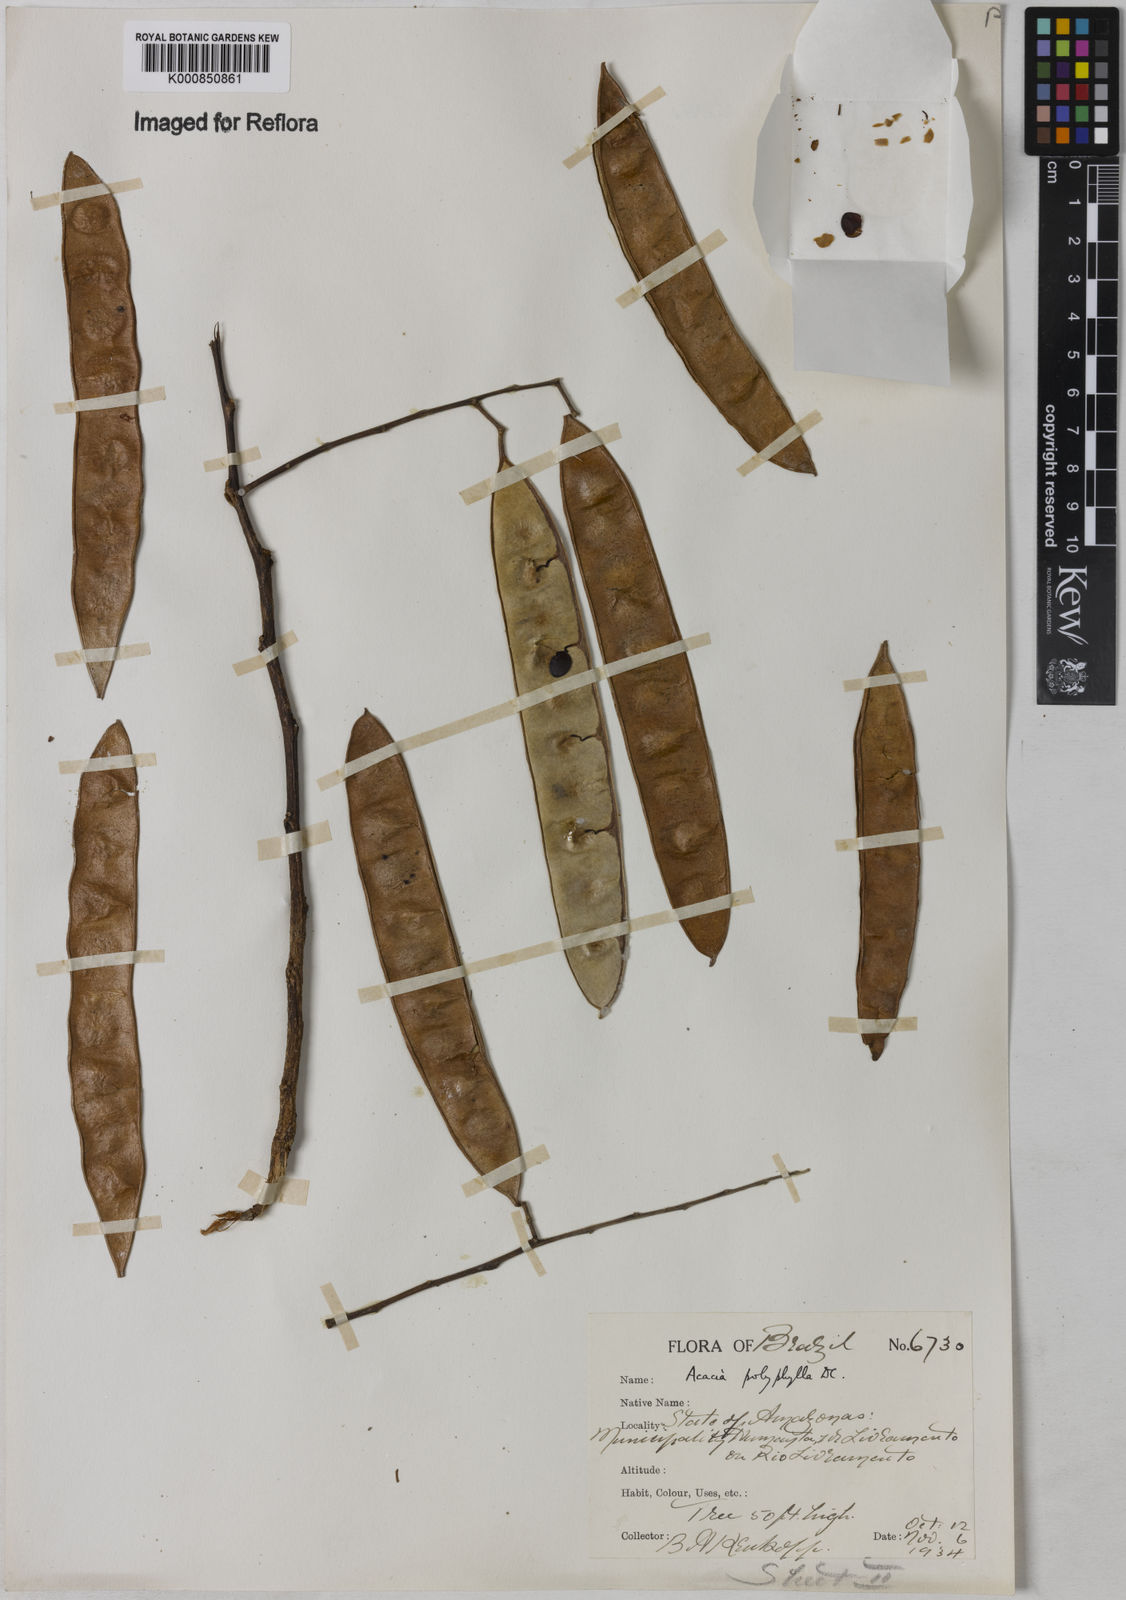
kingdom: Plantae
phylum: Tracheophyta
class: Magnoliopsida
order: Fabales
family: Fabaceae
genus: Senegalia
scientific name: Senegalia polyphylla
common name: White-tamarind
